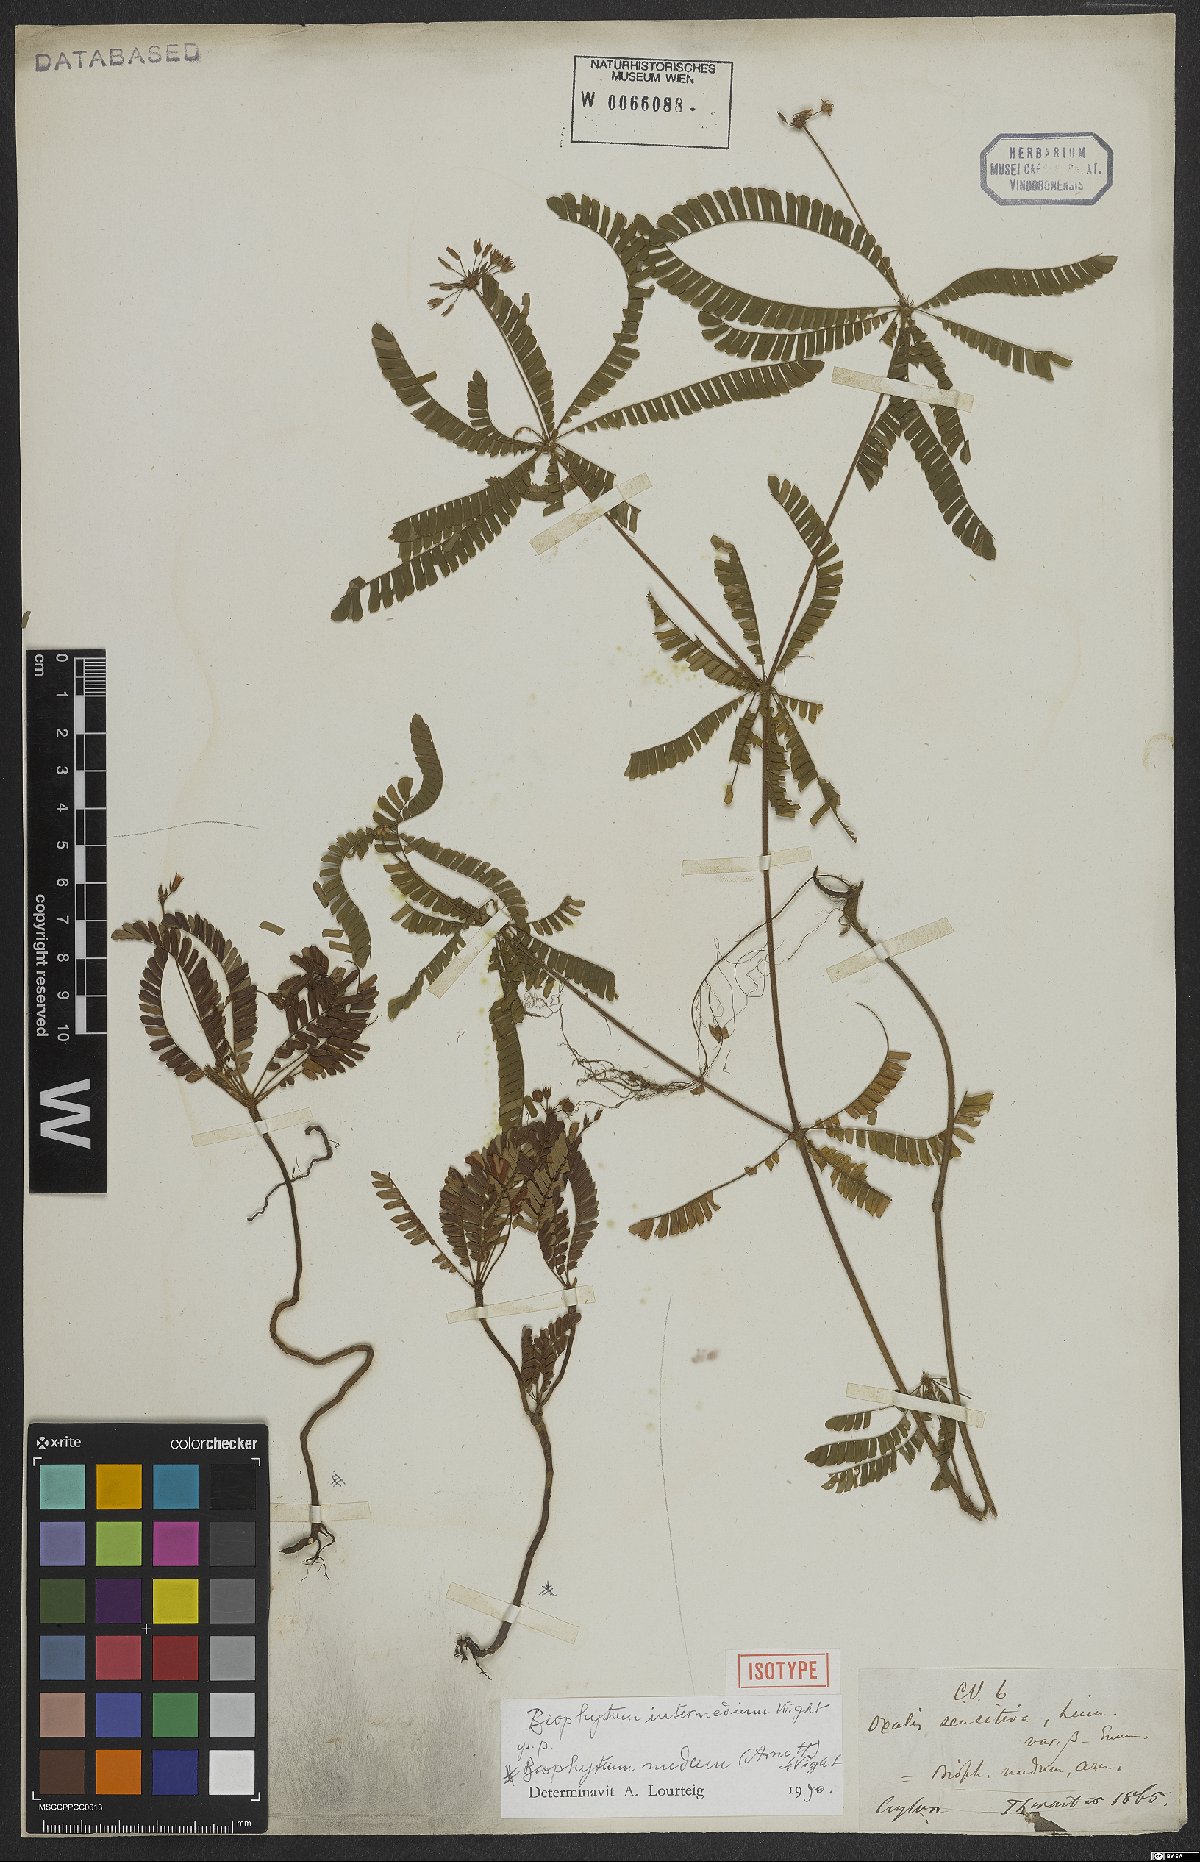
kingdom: Plantae
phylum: Tracheophyta
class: Magnoliopsida
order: Oxalidales
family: Oxalidaceae
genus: Biophytum
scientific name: Biophytum intermedium
